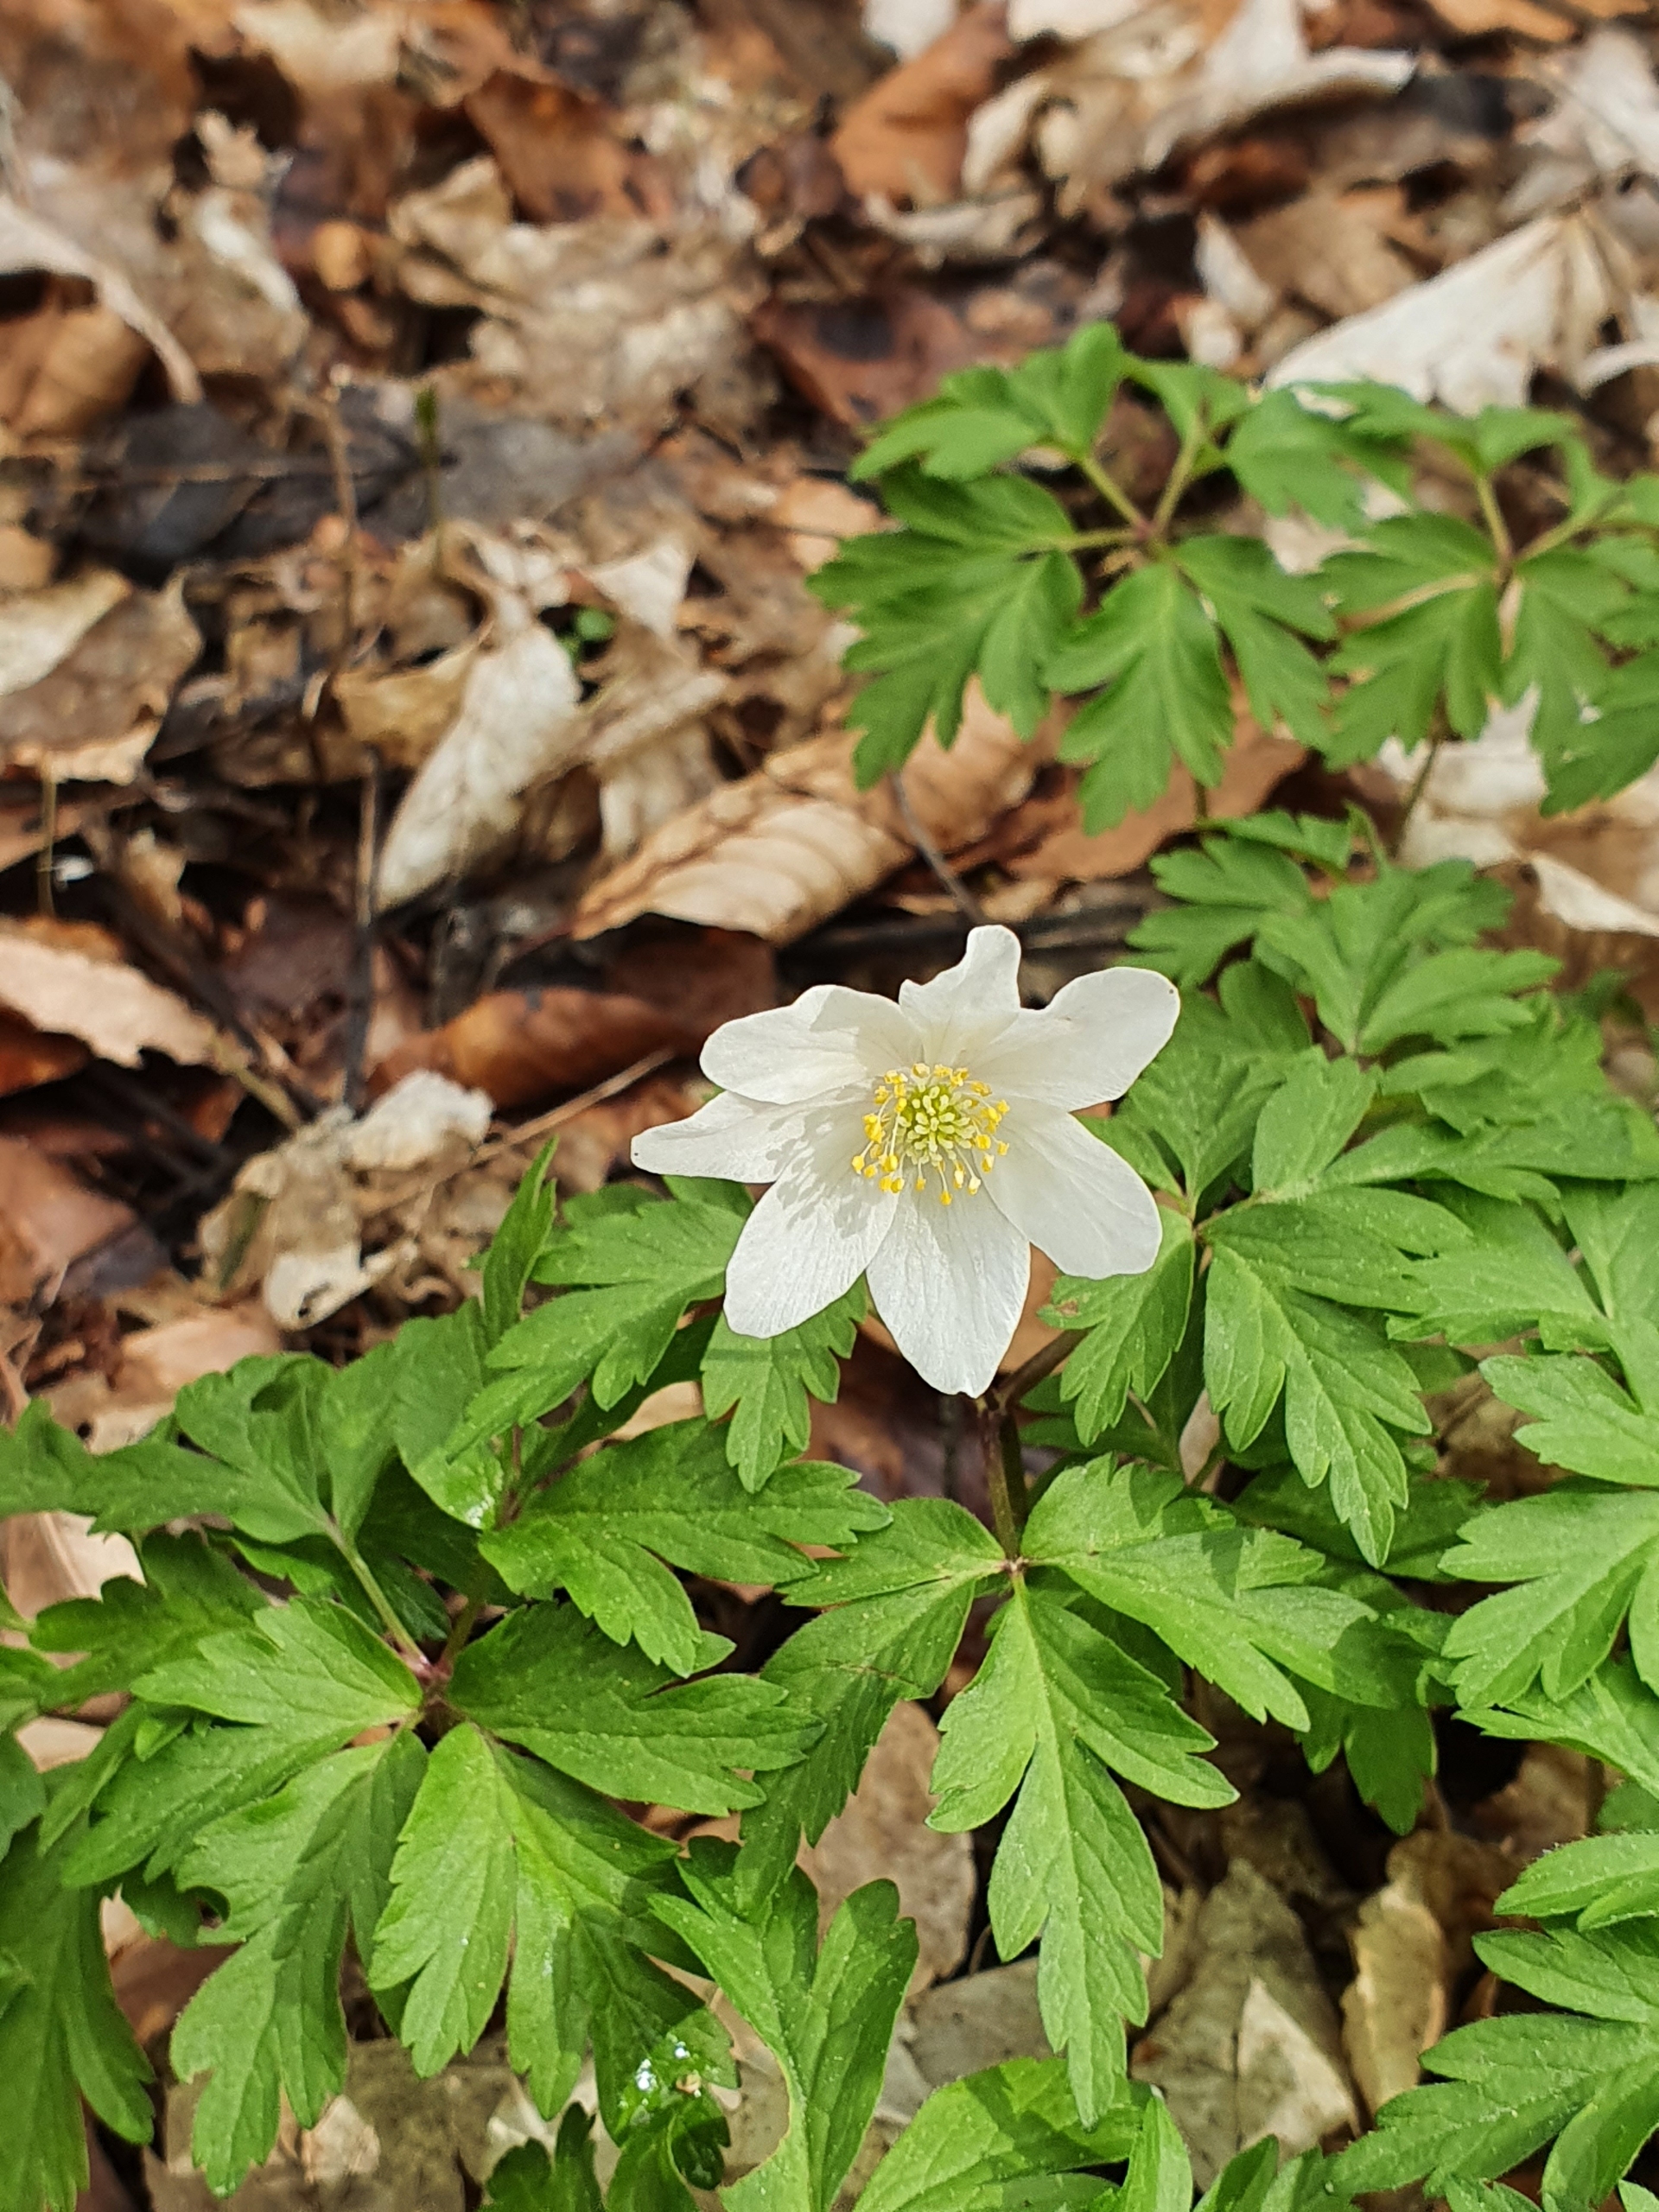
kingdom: Plantae
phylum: Tracheophyta
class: Magnoliopsida
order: Ranunculales
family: Ranunculaceae
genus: Anemone
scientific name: Anemone nemorosa
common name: Hvid anemone
